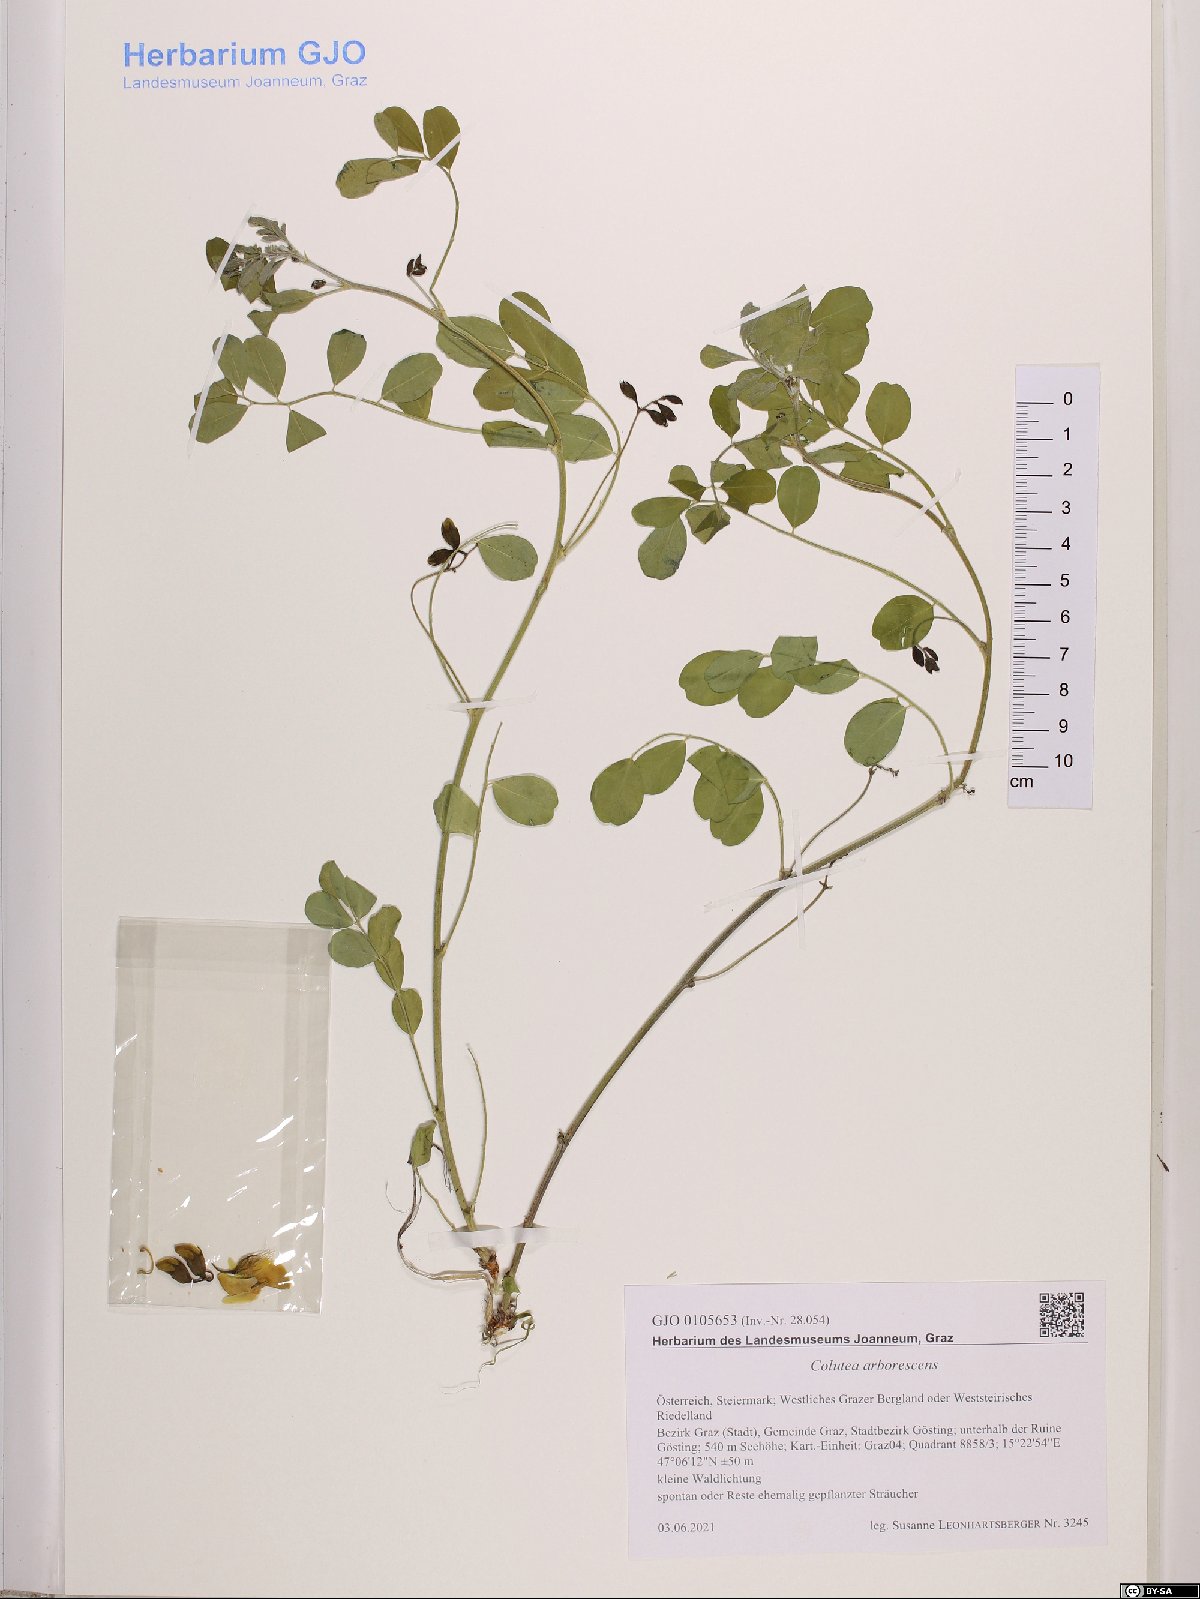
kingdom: Plantae
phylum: Tracheophyta
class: Magnoliopsida
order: Fabales
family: Fabaceae
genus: Colutea
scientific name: Colutea arborescens
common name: Bladder-senna
